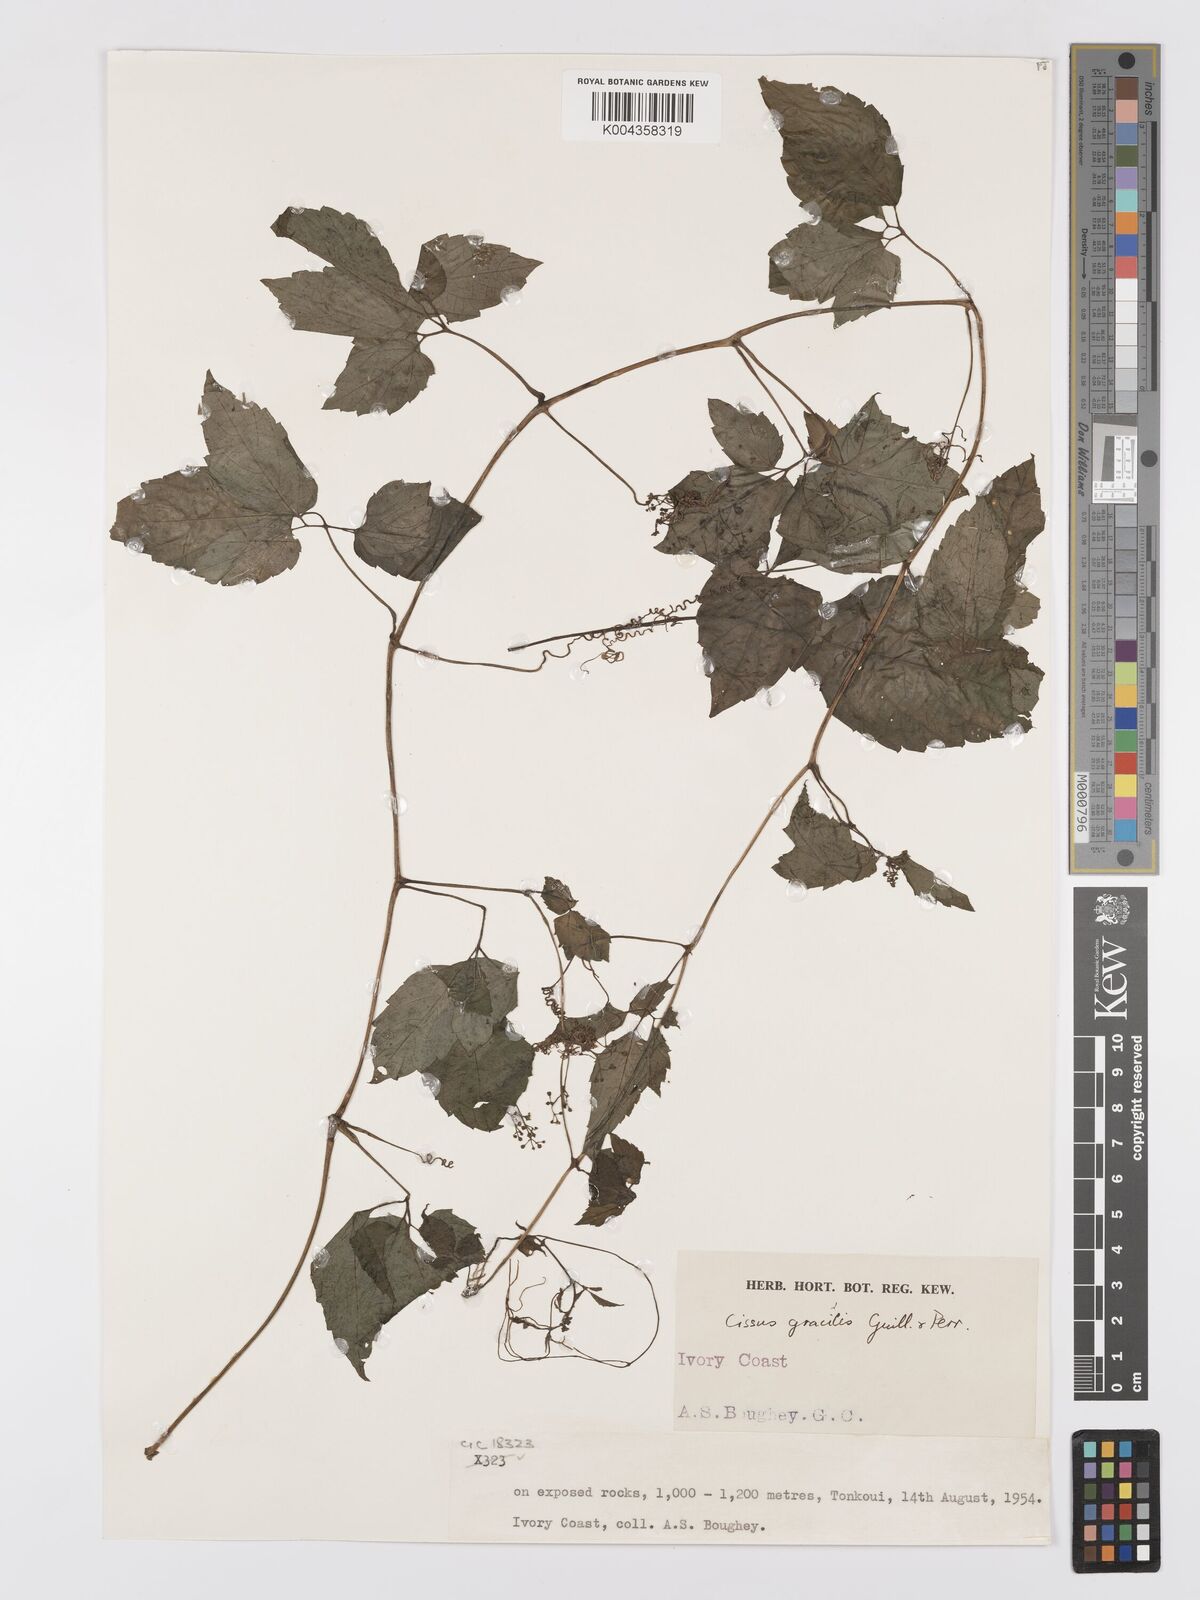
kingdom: Plantae
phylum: Tracheophyta
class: Magnoliopsida
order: Vitales
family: Vitaceae
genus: Afrocayratia
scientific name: Afrocayratia gracilis
